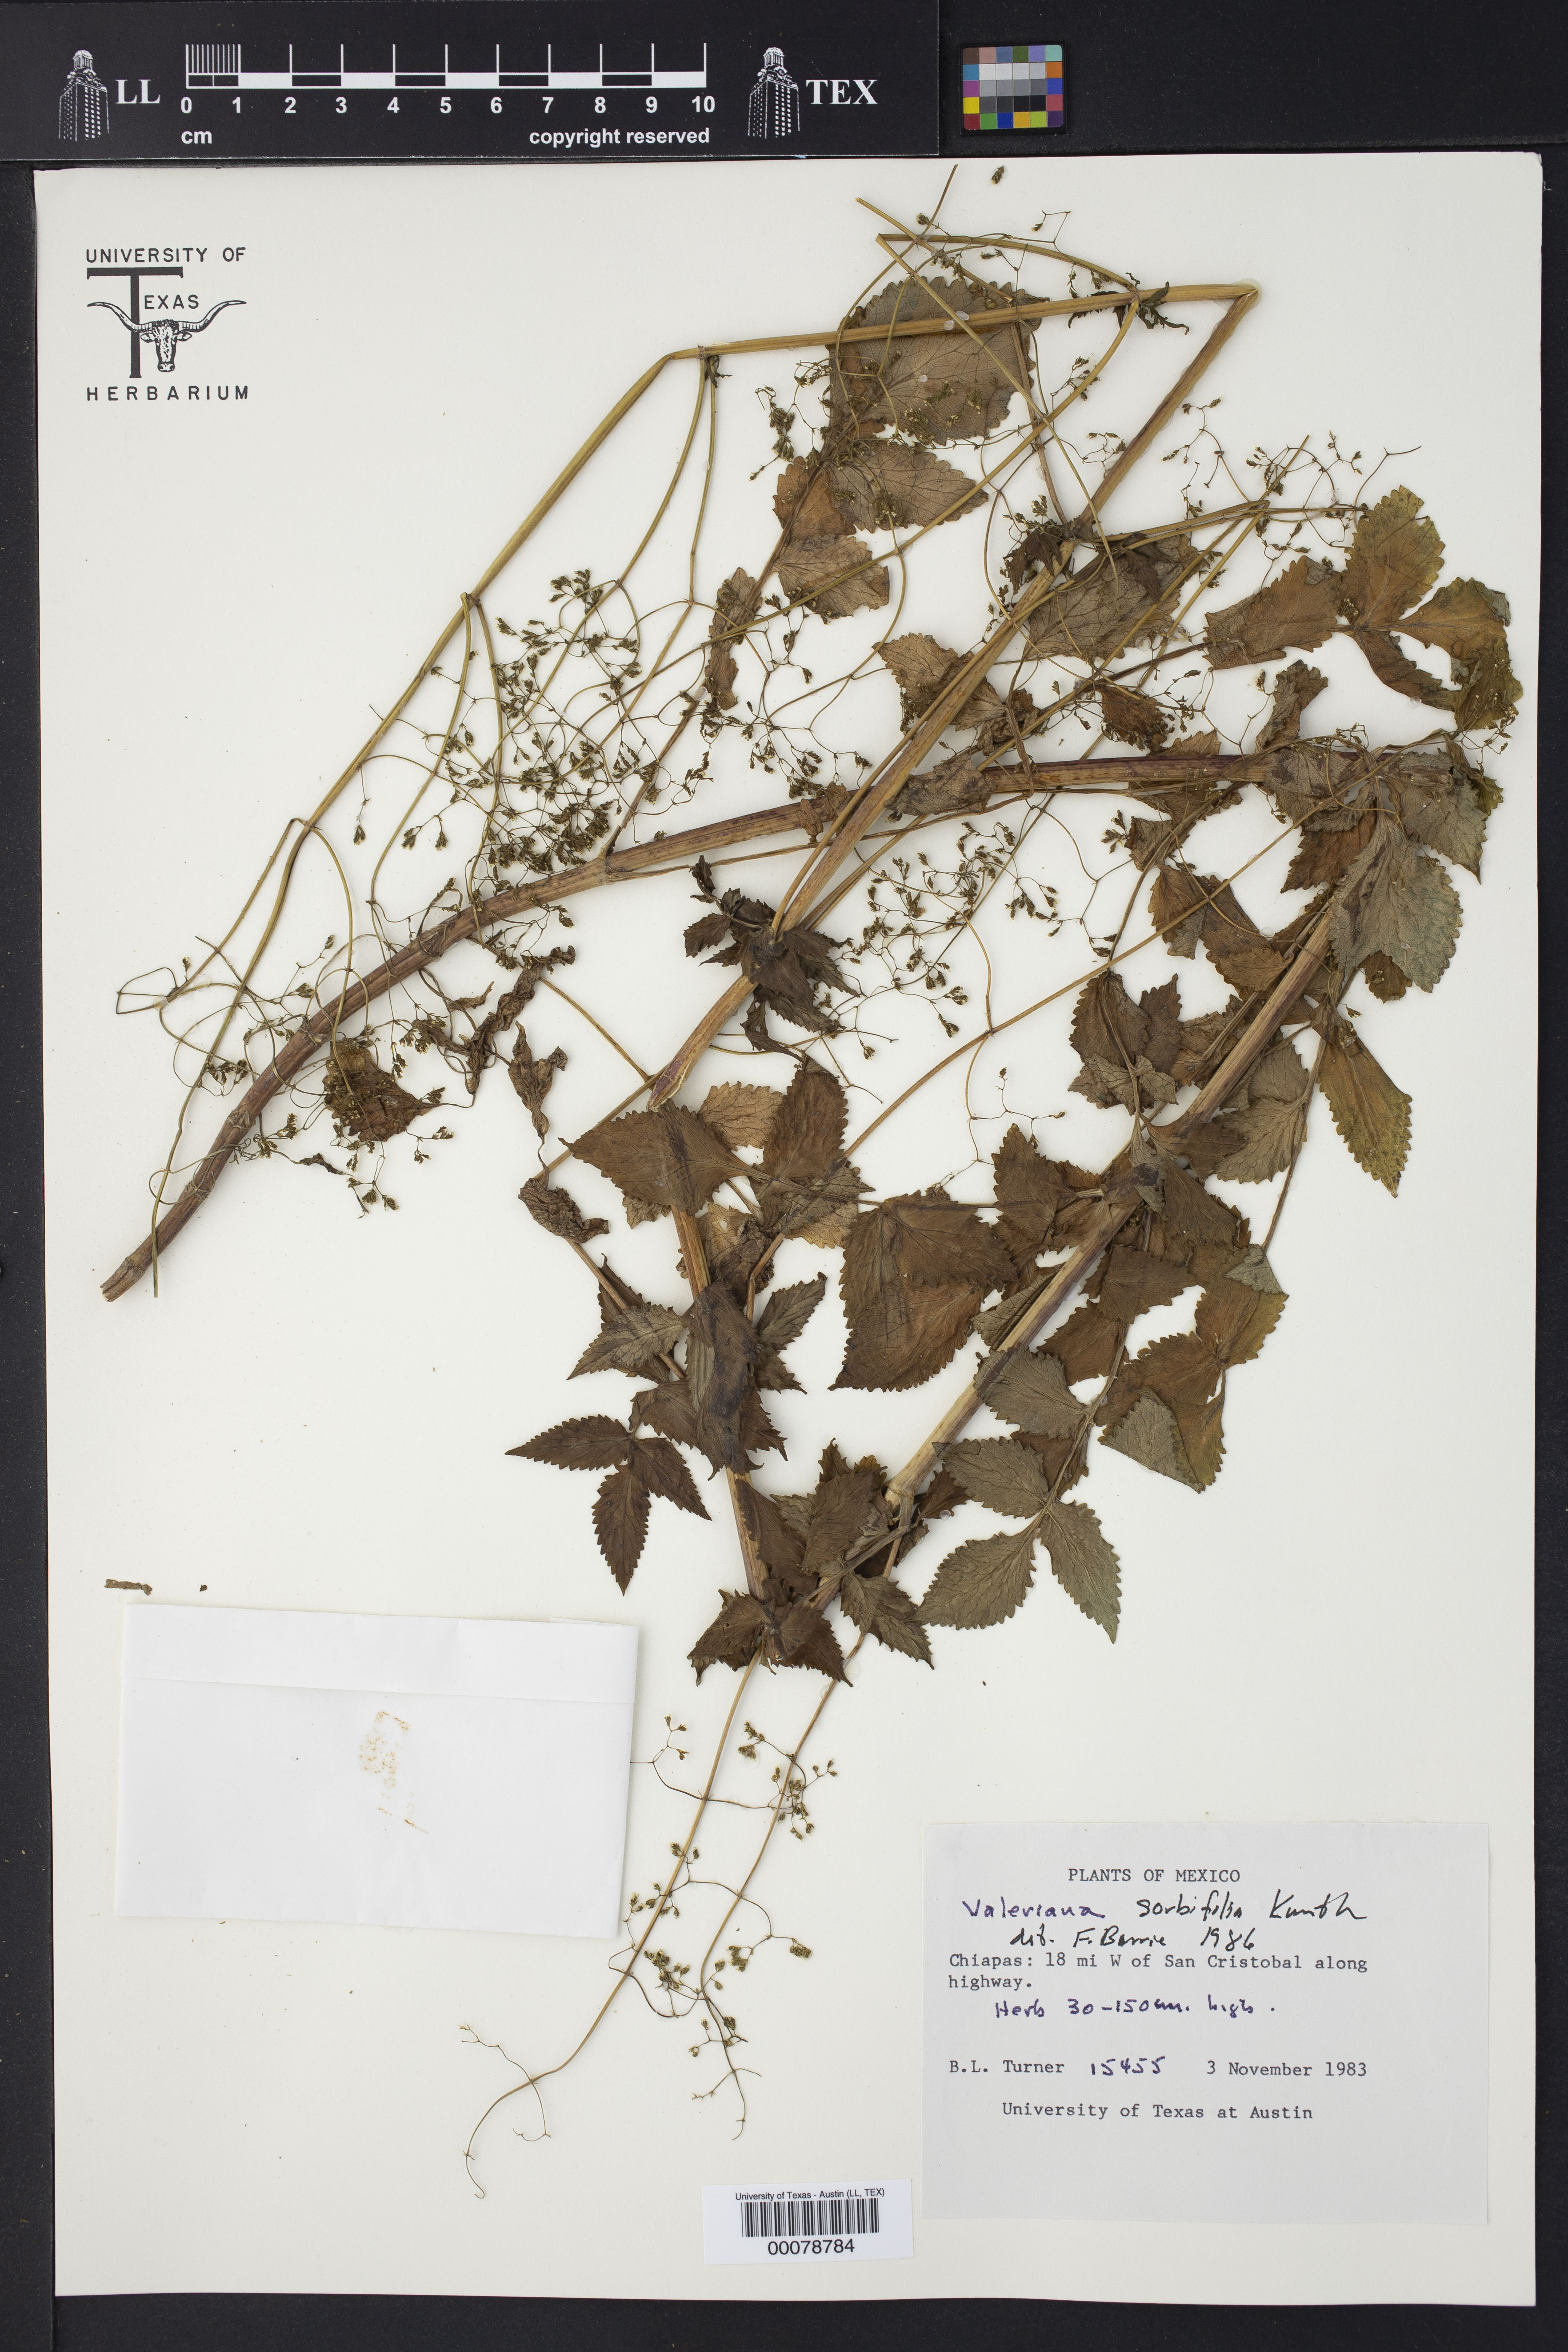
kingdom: Plantae
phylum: Tracheophyta
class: Magnoliopsida
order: Dipsacales
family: Caprifoliaceae
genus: Valeriana
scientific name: Valeriana sorbifolia
